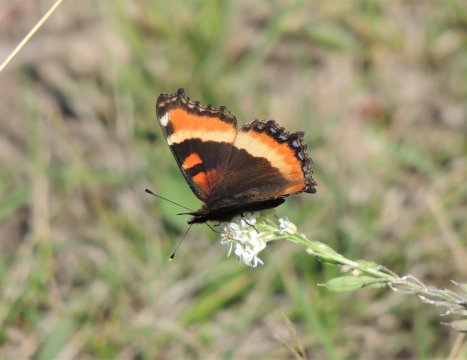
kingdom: Animalia
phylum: Arthropoda
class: Insecta
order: Lepidoptera
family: Nymphalidae
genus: Aglais
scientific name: Aglais milberti
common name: Milbert's Tortoiseshell
